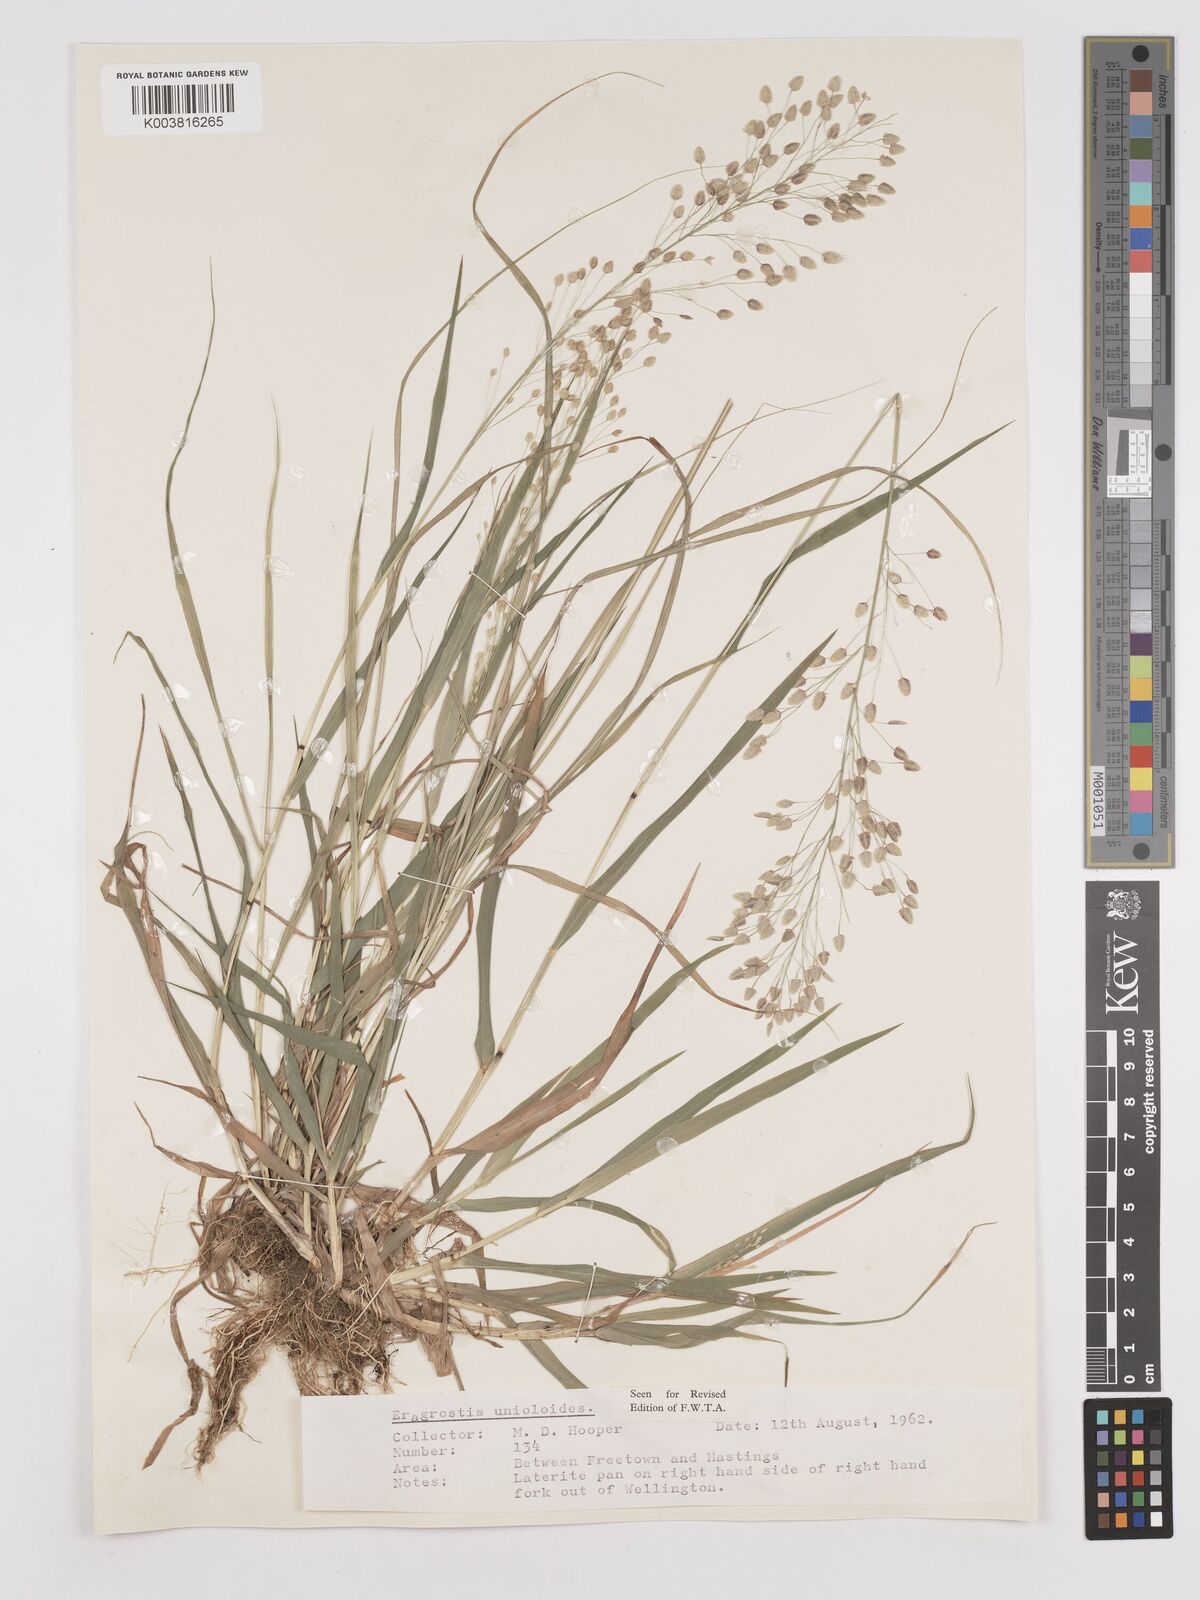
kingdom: Plantae
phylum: Tracheophyta
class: Liliopsida
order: Poales
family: Poaceae
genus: Eragrostis
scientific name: Eragrostis unioloides
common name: Chinese lovegrass
